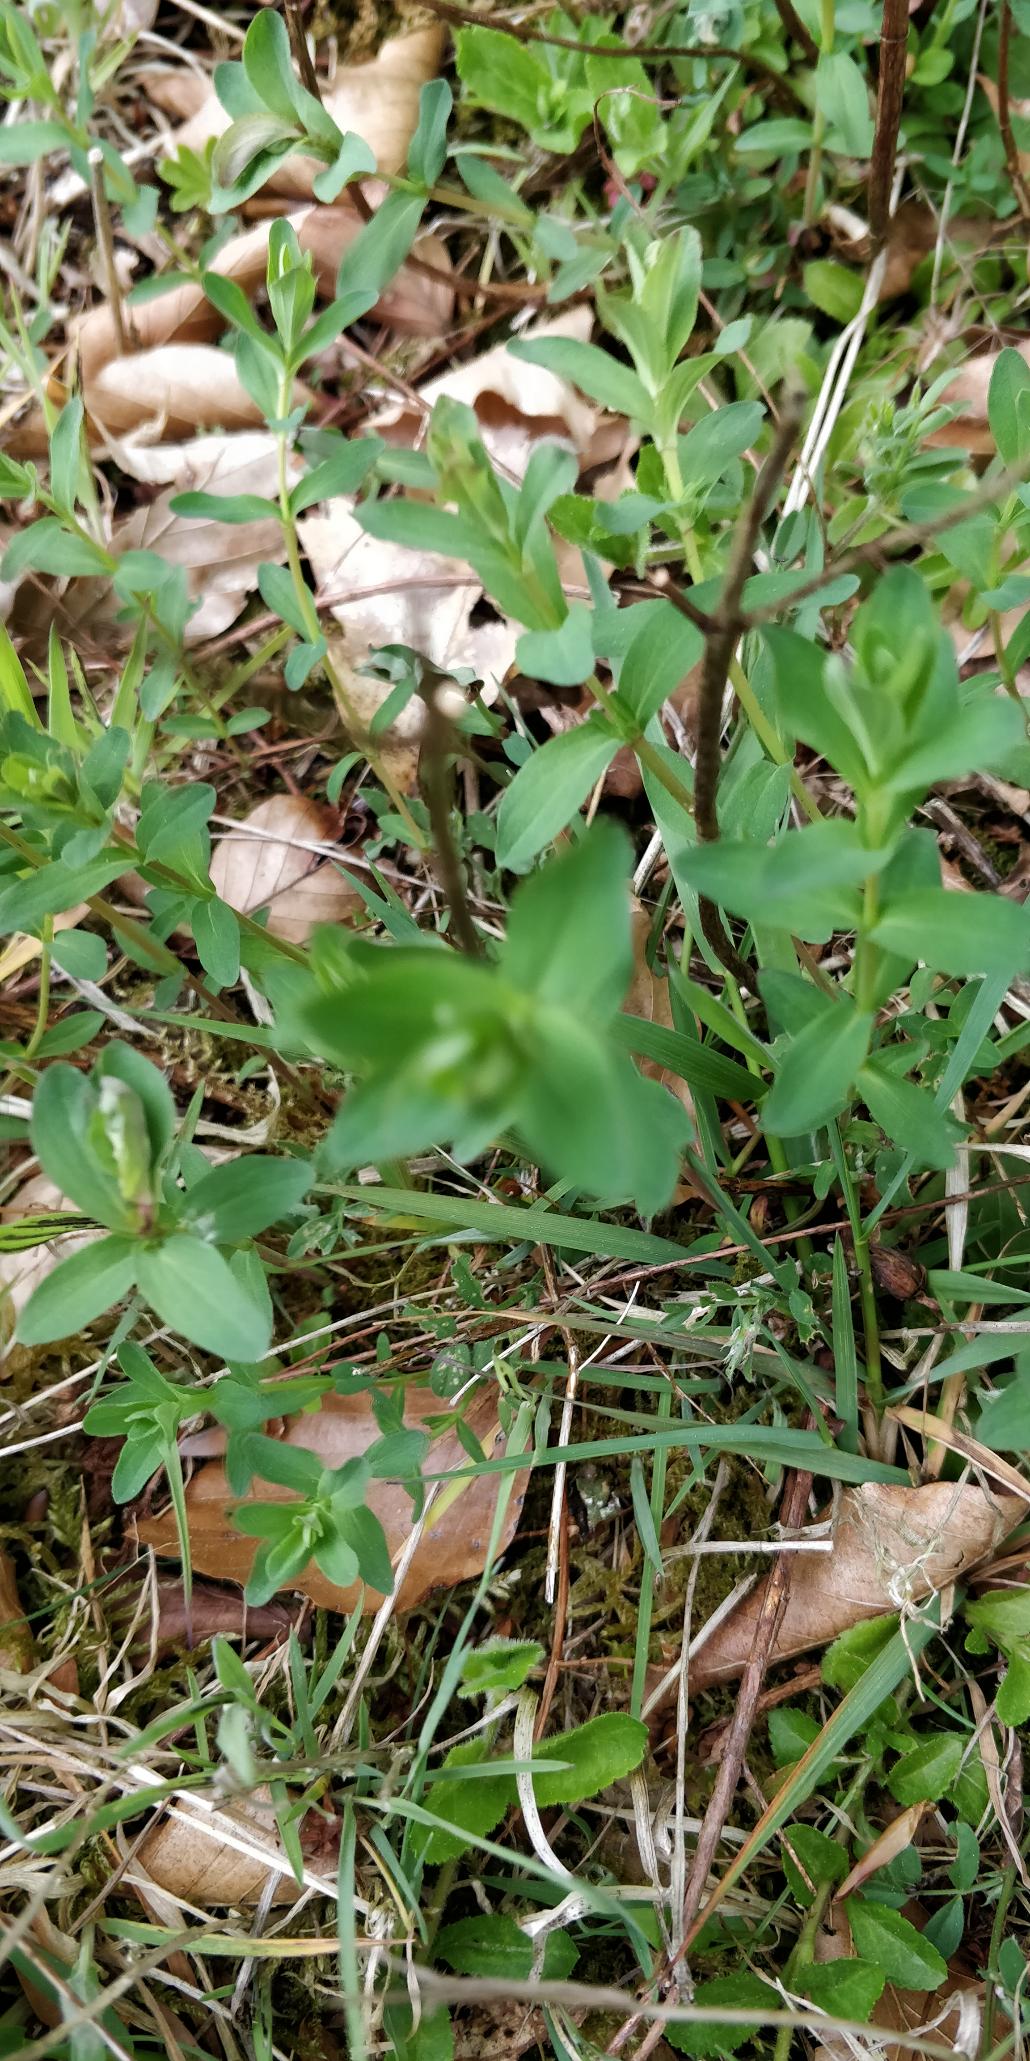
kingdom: Plantae
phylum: Tracheophyta
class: Magnoliopsida
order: Malpighiales
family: Hypericaceae
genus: Hypericum
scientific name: Hypericum perforatum
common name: Prikbladet perikon
